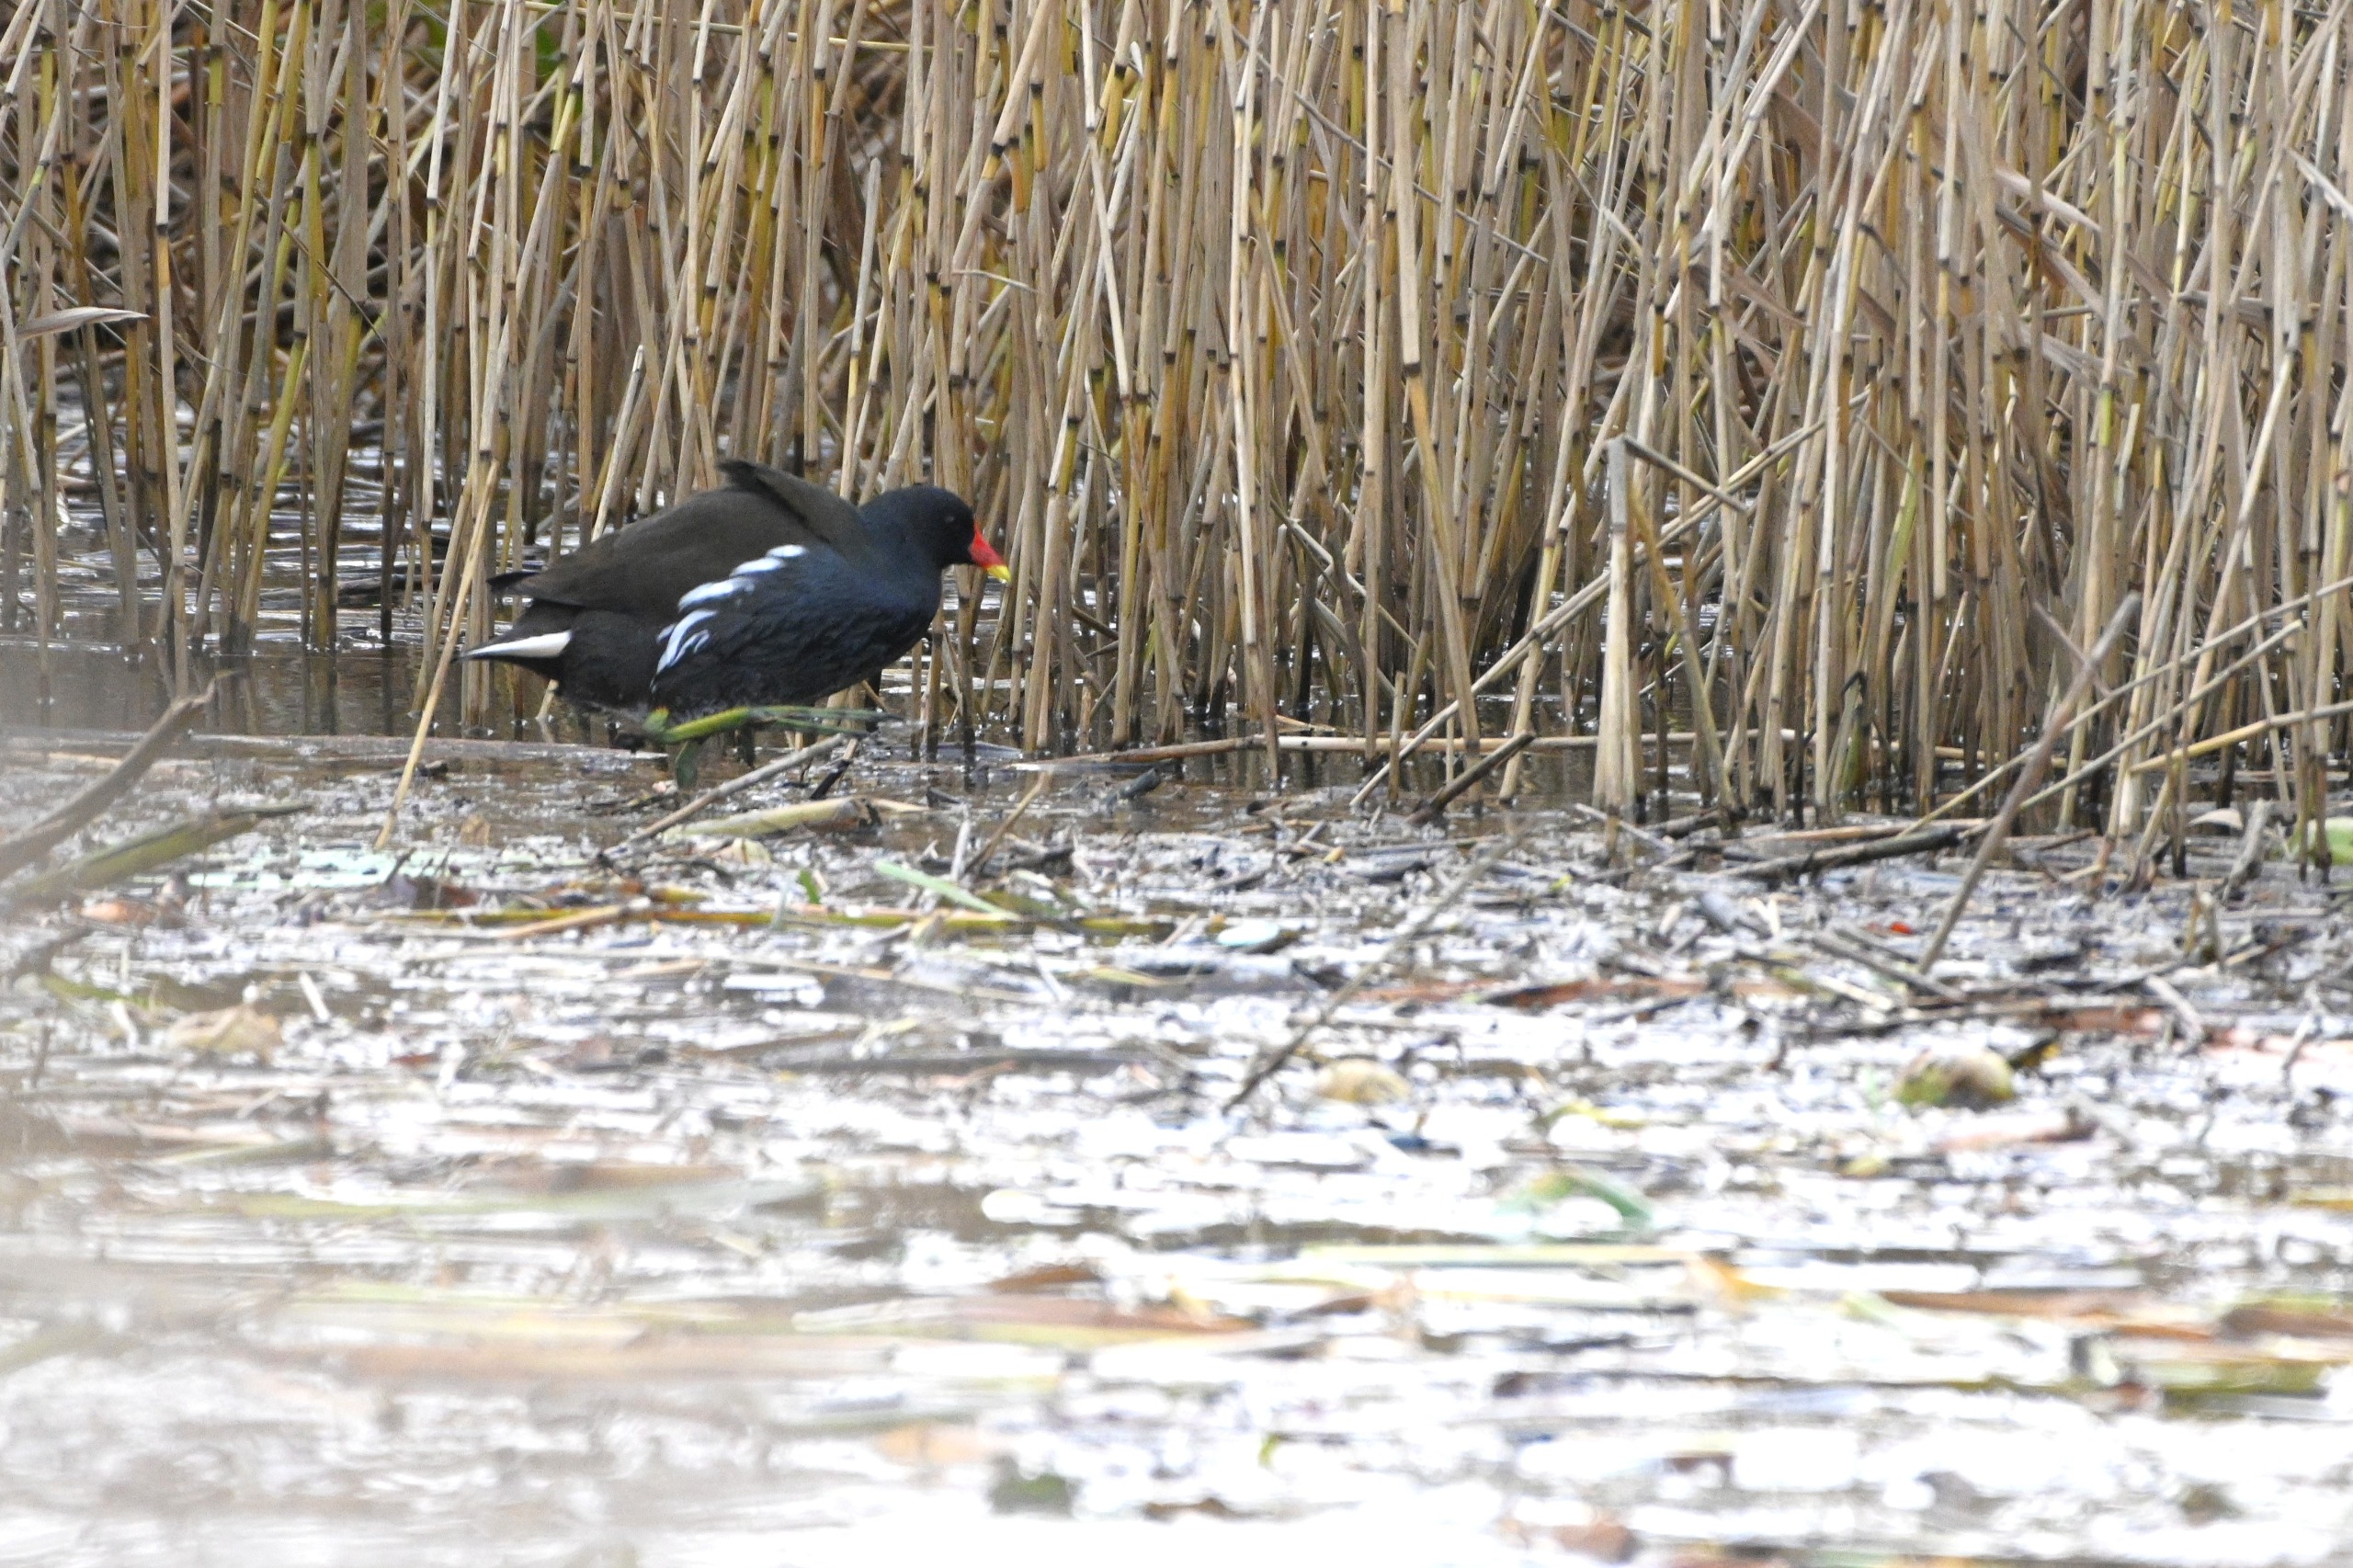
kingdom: Animalia
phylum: Chordata
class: Aves
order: Gruiformes
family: Rallidae
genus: Gallinula
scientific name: Gallinula chloropus
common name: Grønbenet rørhøne
